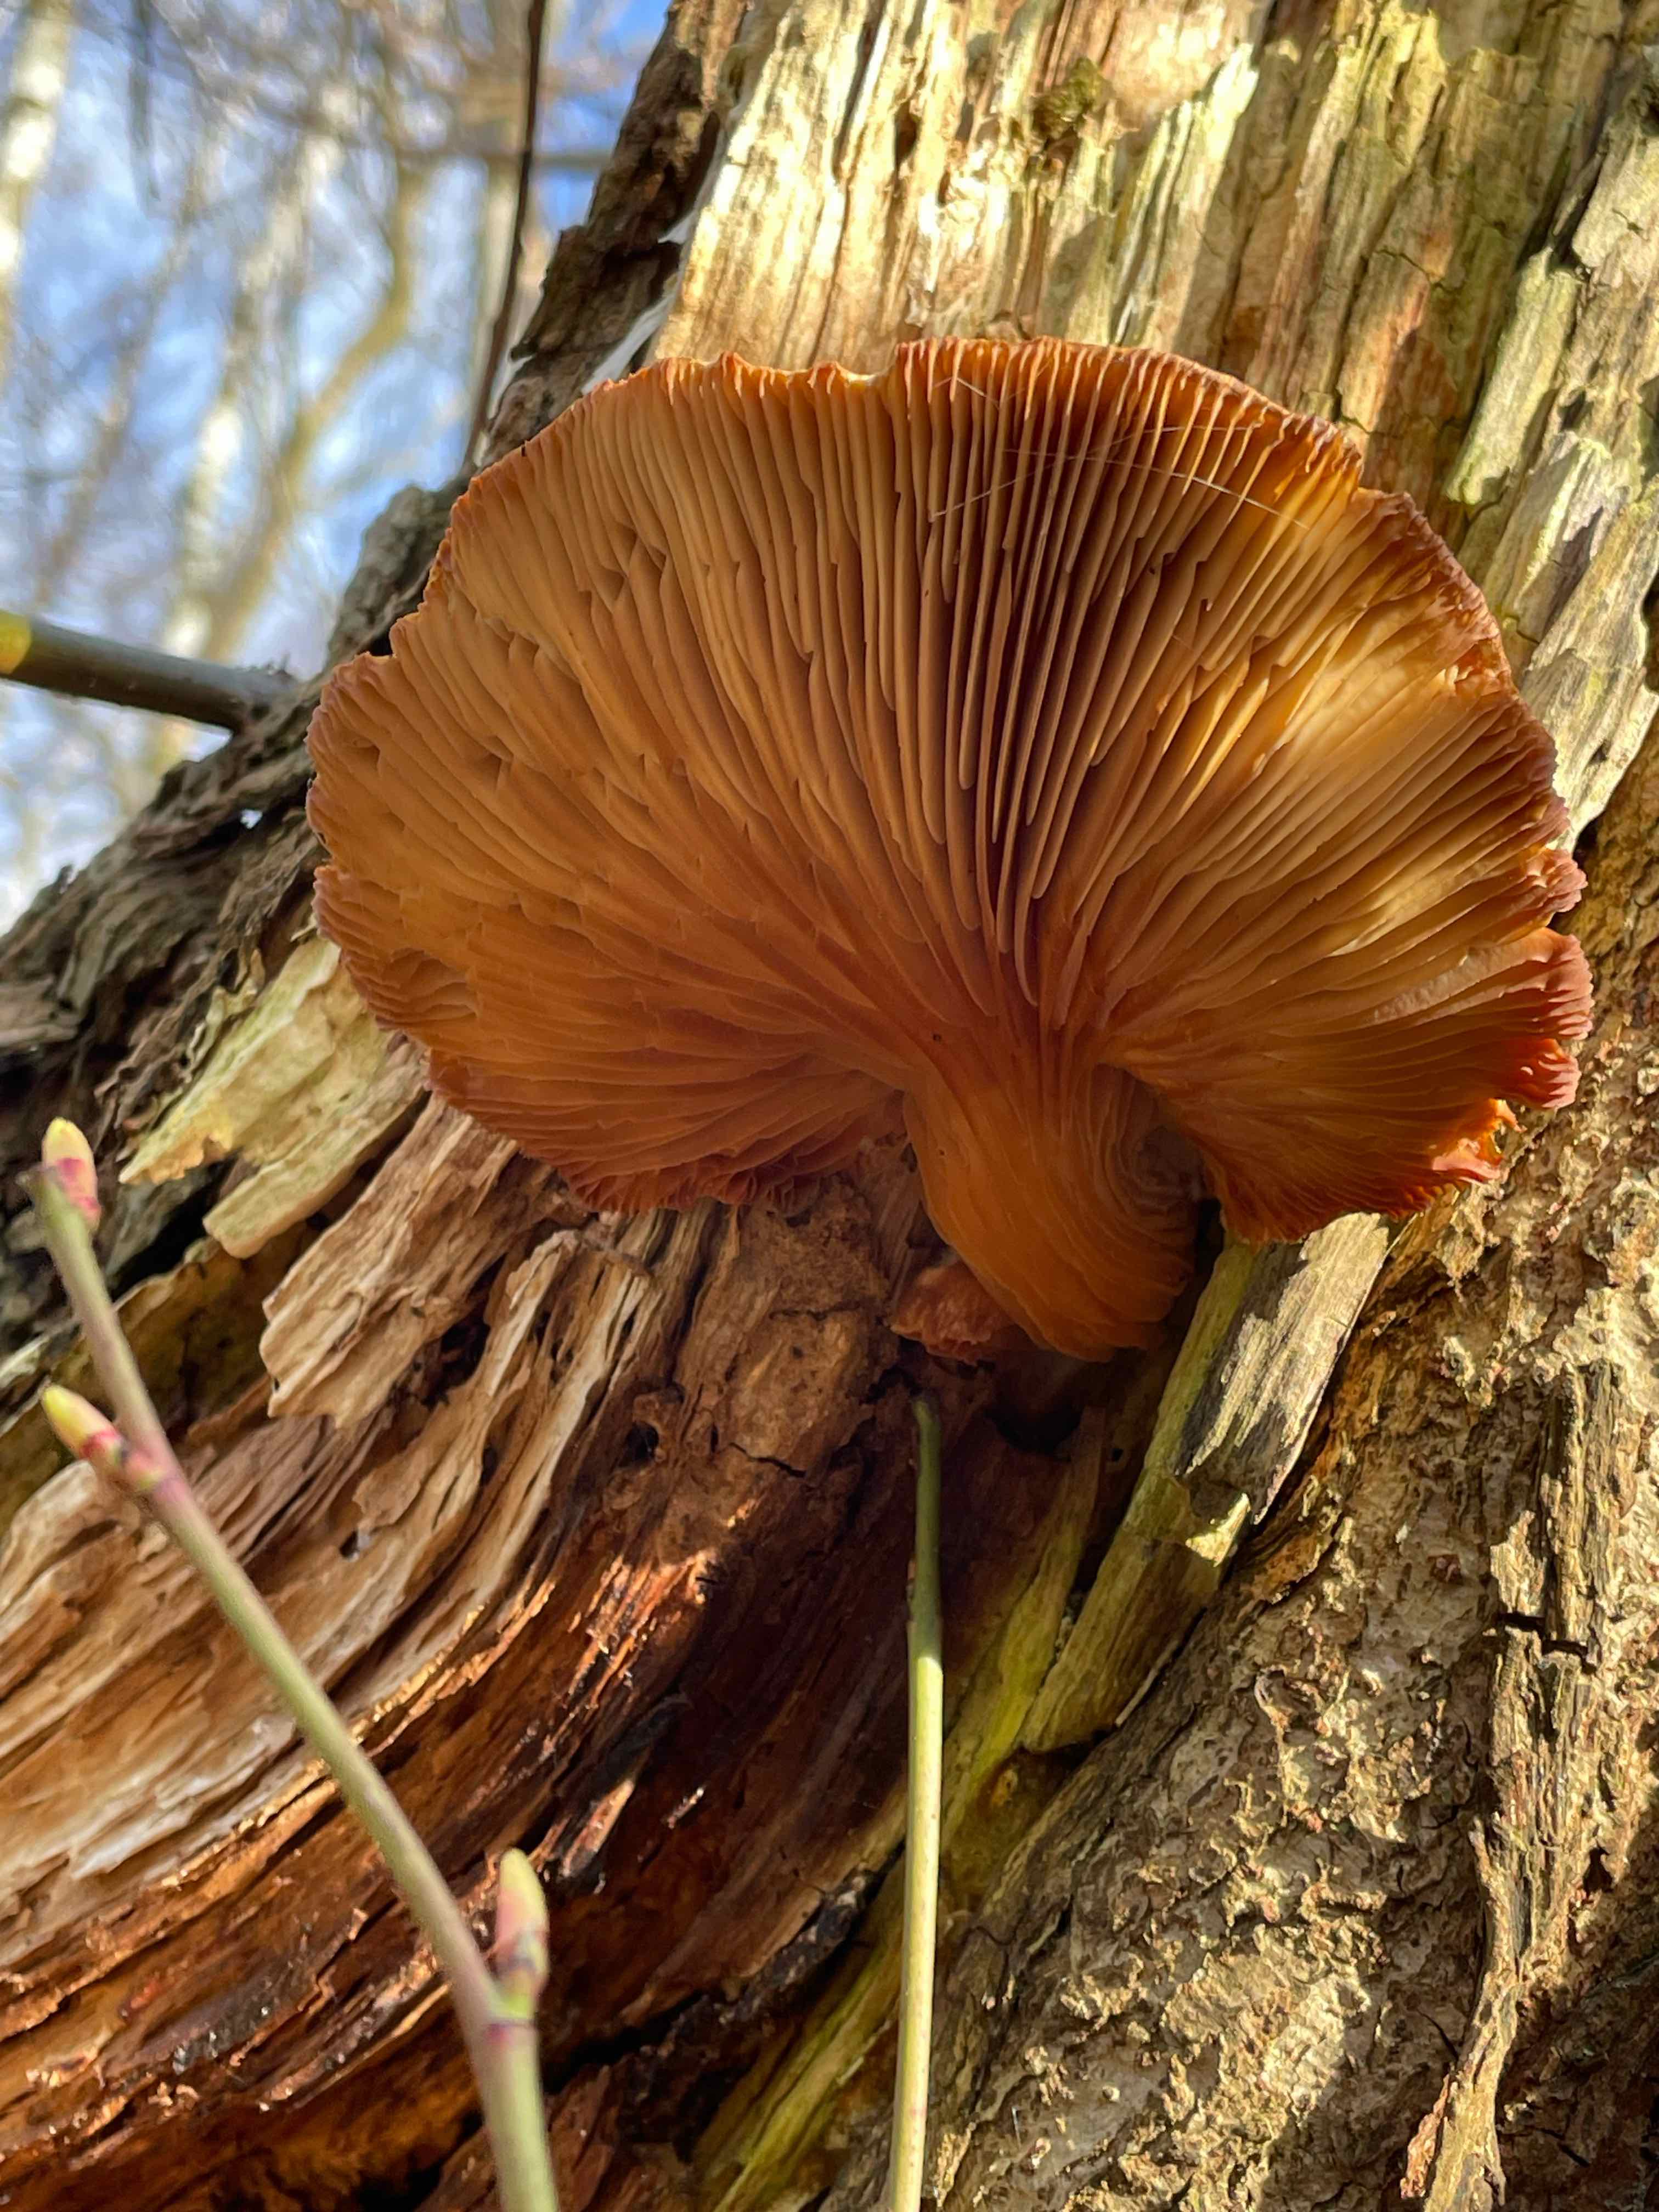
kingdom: Fungi
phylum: Basidiomycota
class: Agaricomycetes
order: Agaricales
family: Pleurotaceae
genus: Pleurotus
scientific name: Pleurotus ostreatus
